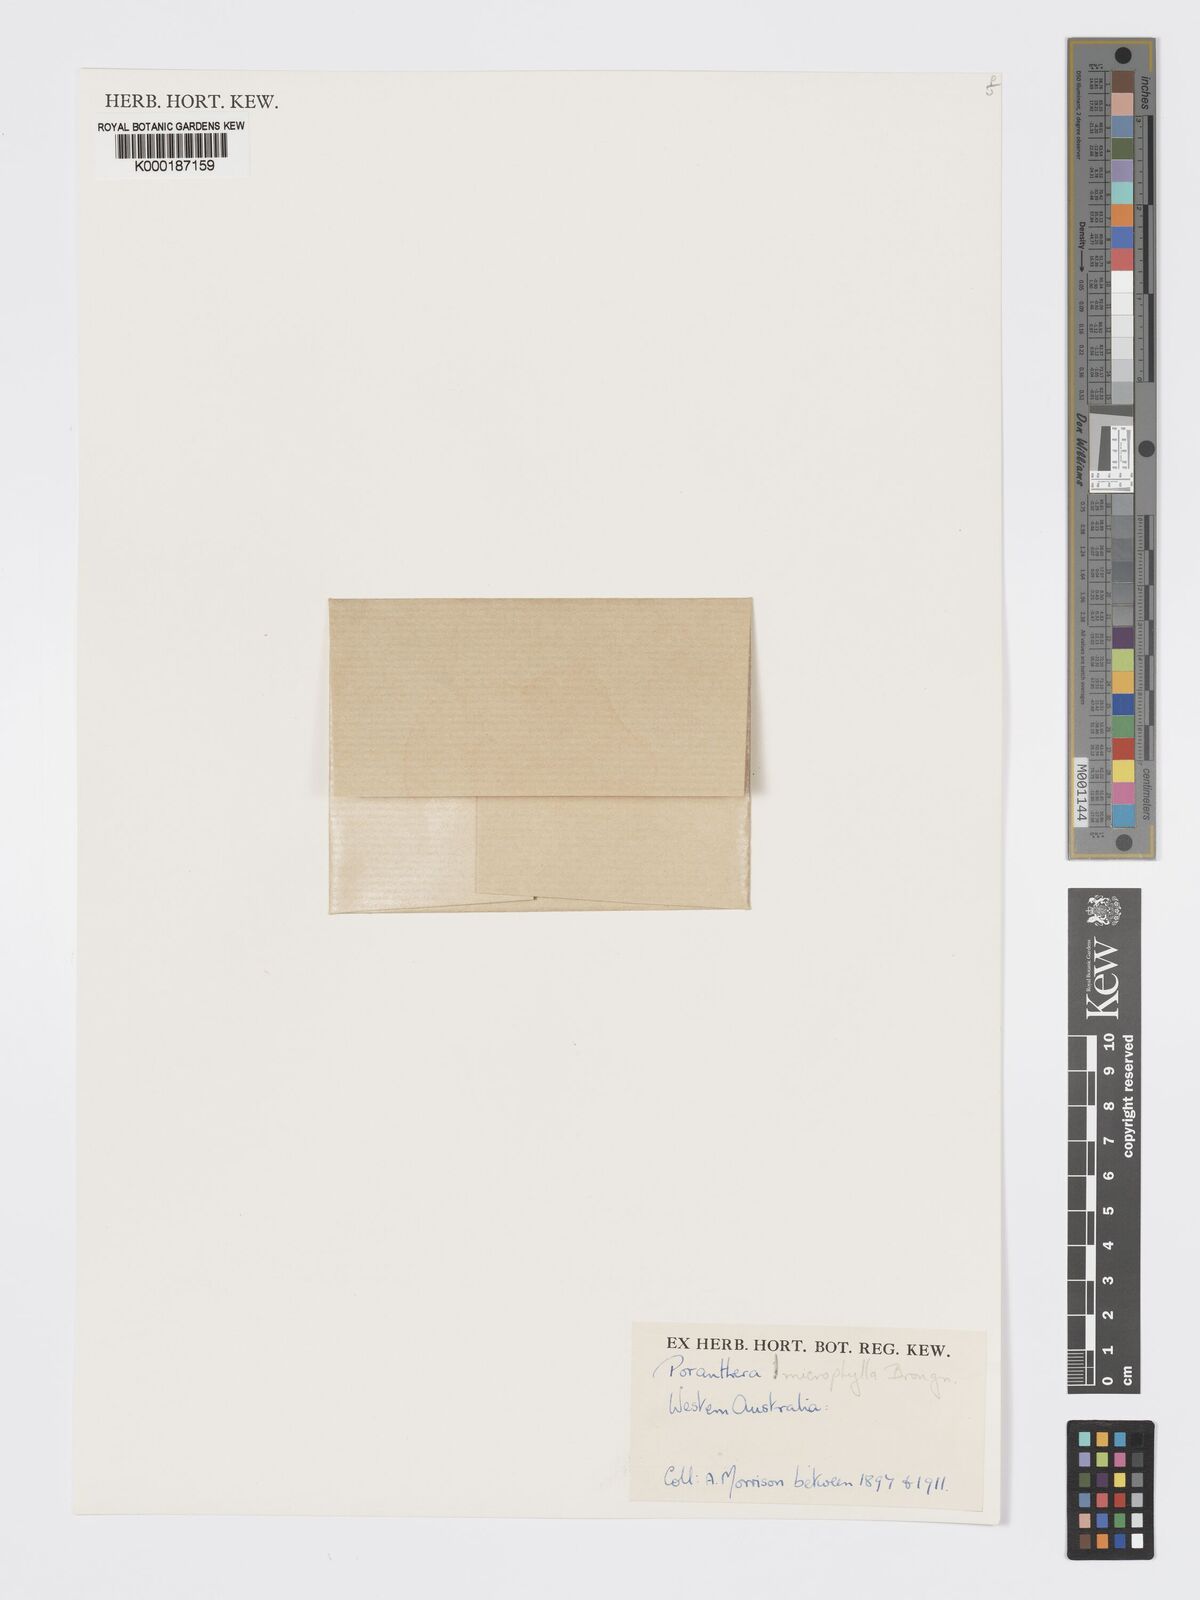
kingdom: Plantae
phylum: Tracheophyta
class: Magnoliopsida
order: Malpighiales
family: Phyllanthaceae
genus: Poranthera
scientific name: Poranthera microphylla
